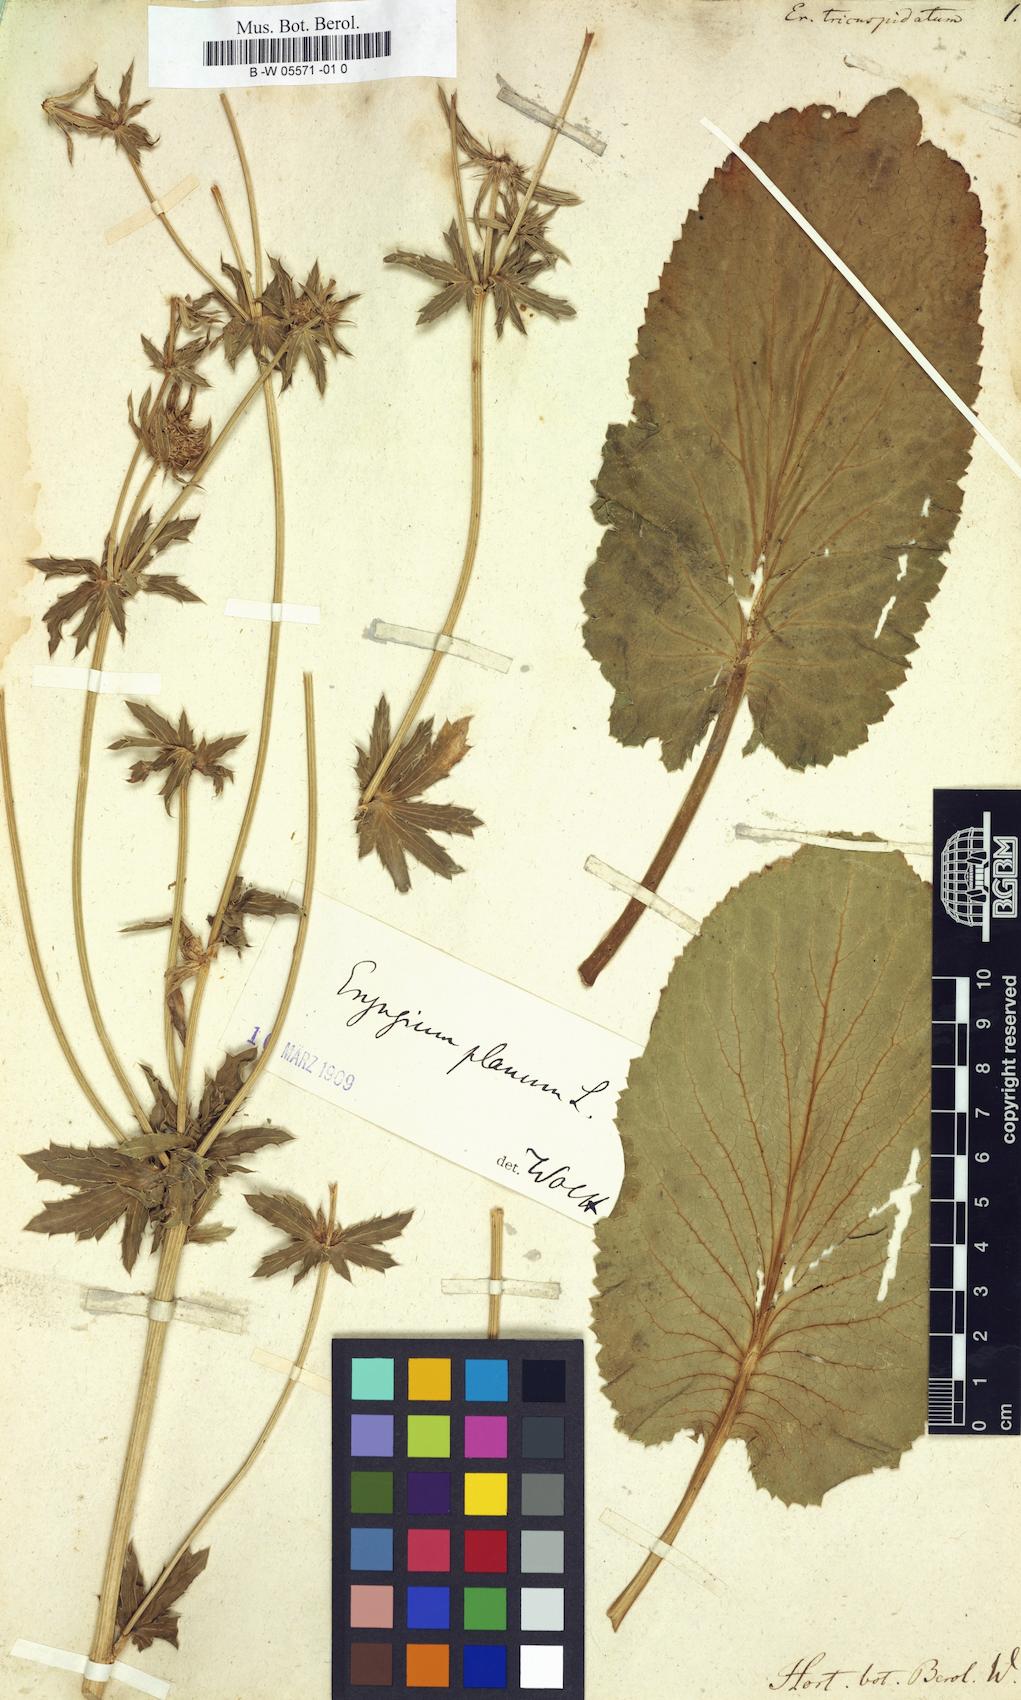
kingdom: Plantae
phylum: Tracheophyta
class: Magnoliopsida
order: Apiales
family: Apiaceae
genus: Eryngium
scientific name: Eryngium tricuspidatum
